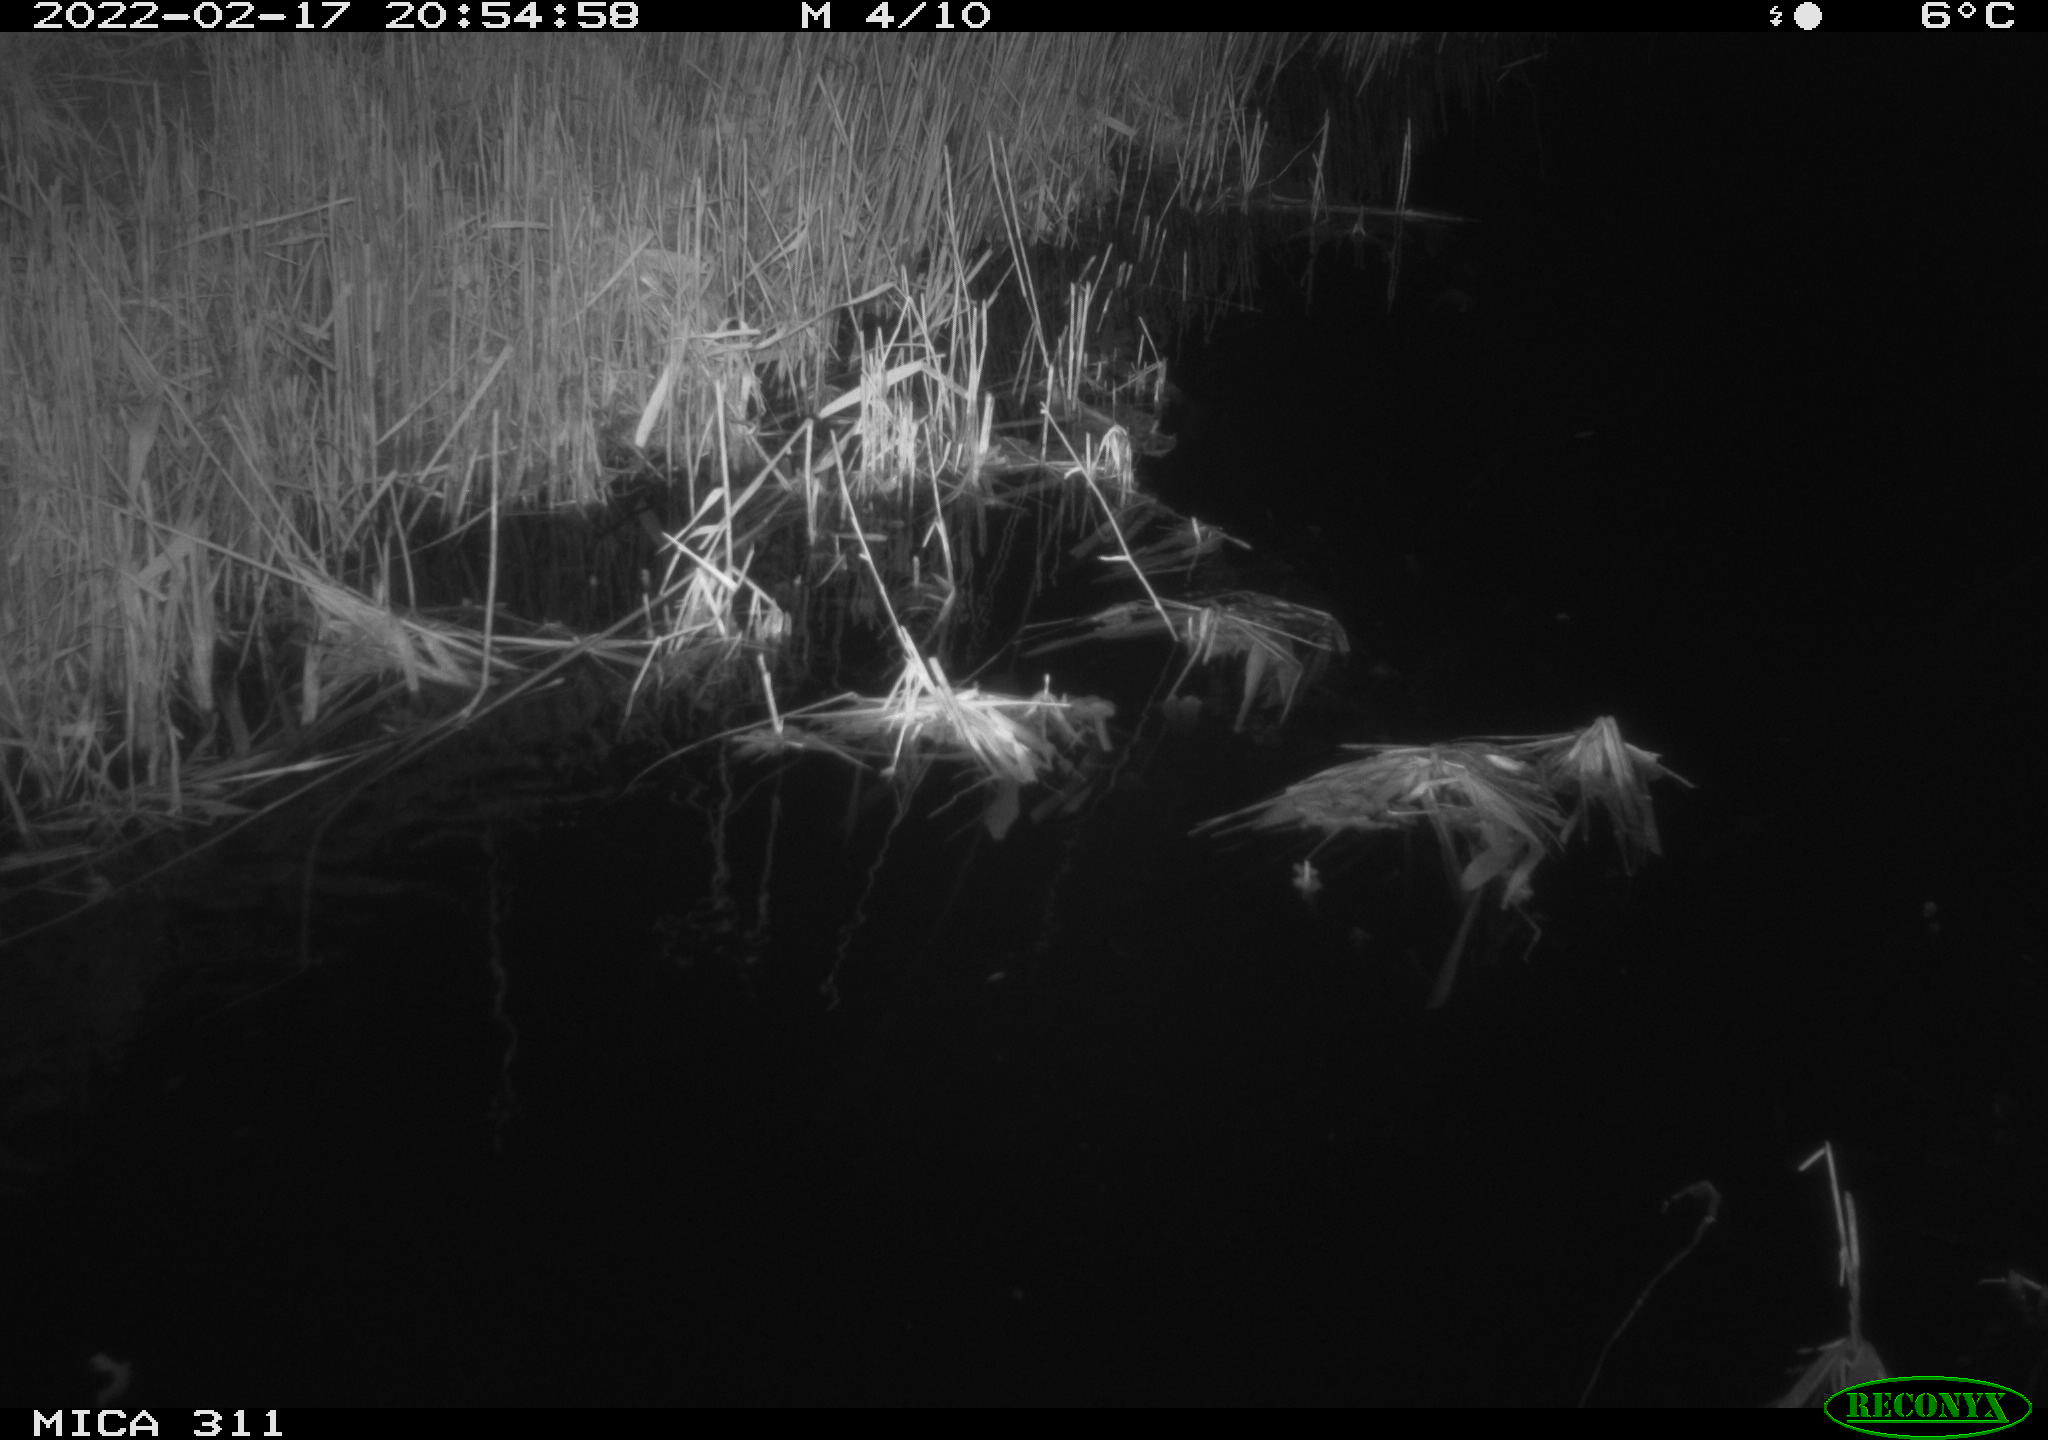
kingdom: Animalia
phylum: Chordata
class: Mammalia
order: Rodentia
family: Muridae
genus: Rattus
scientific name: Rattus norvegicus
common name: Brown rat
